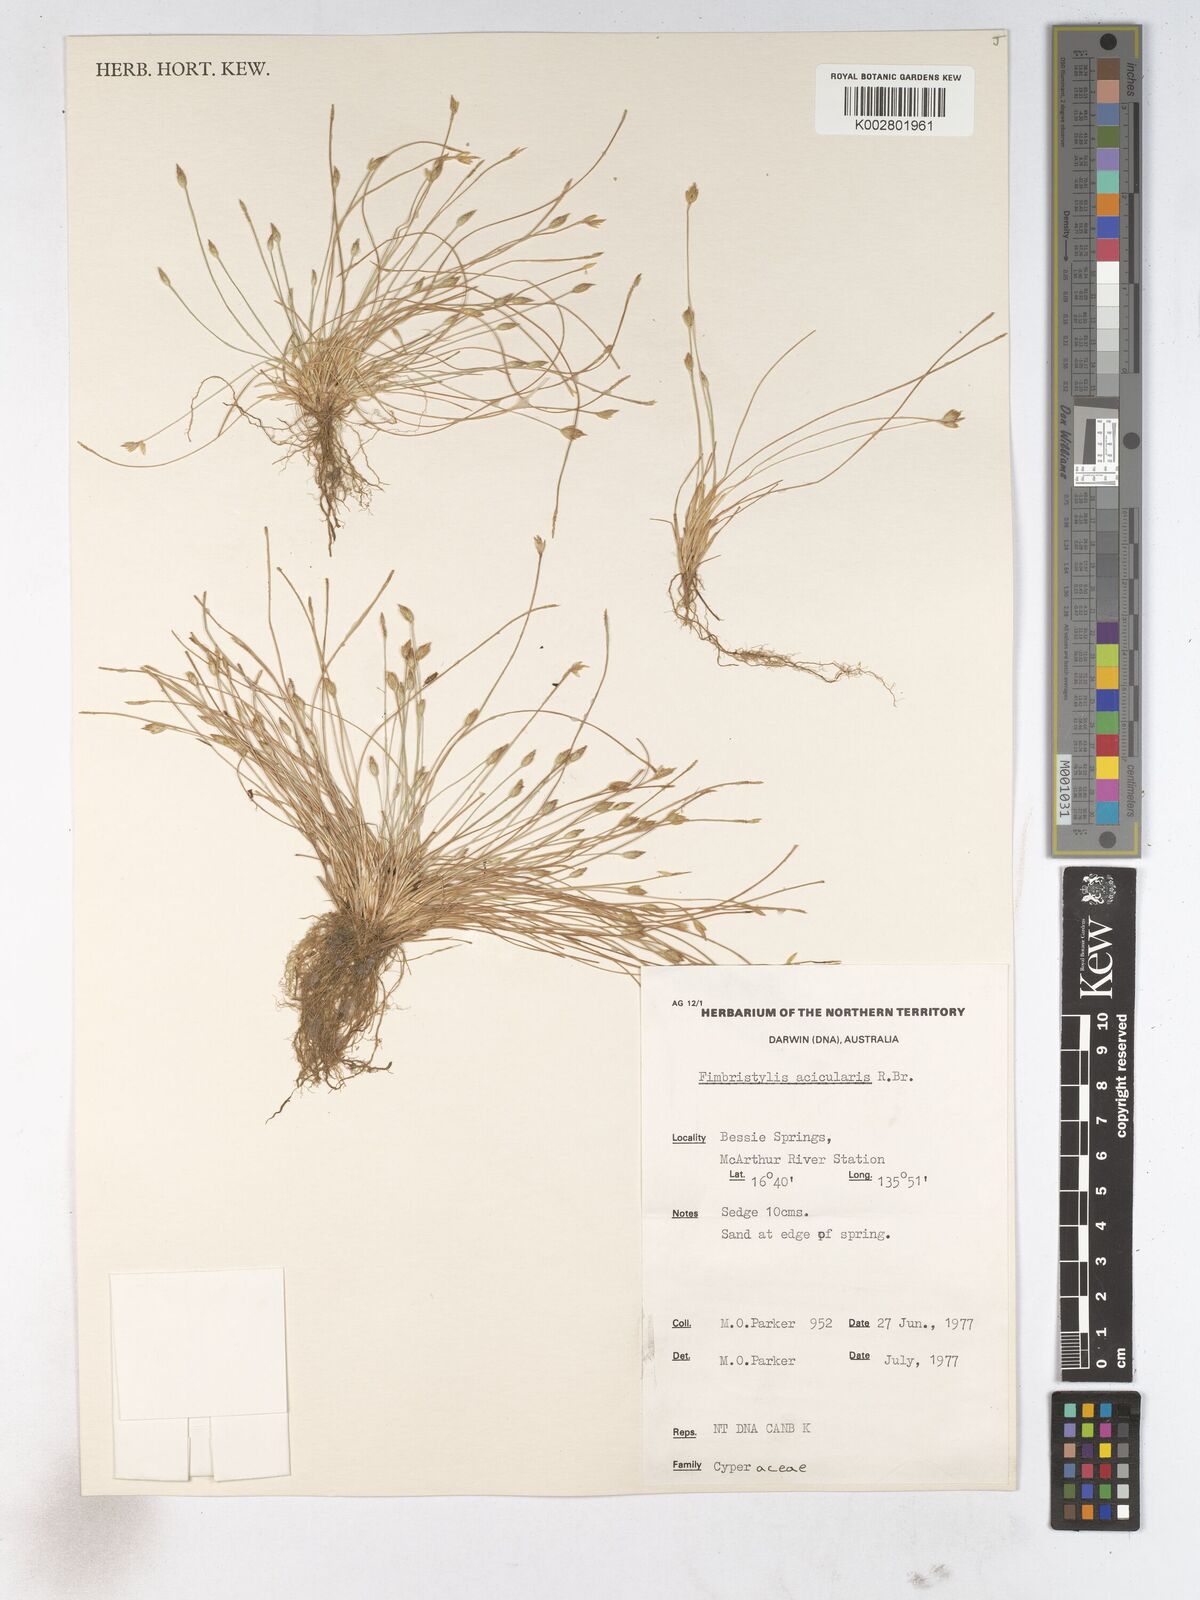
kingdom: Plantae
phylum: Tracheophyta
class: Liliopsida
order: Poales
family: Cyperaceae
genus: Fimbristylis
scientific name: Fimbristylis acicularis
